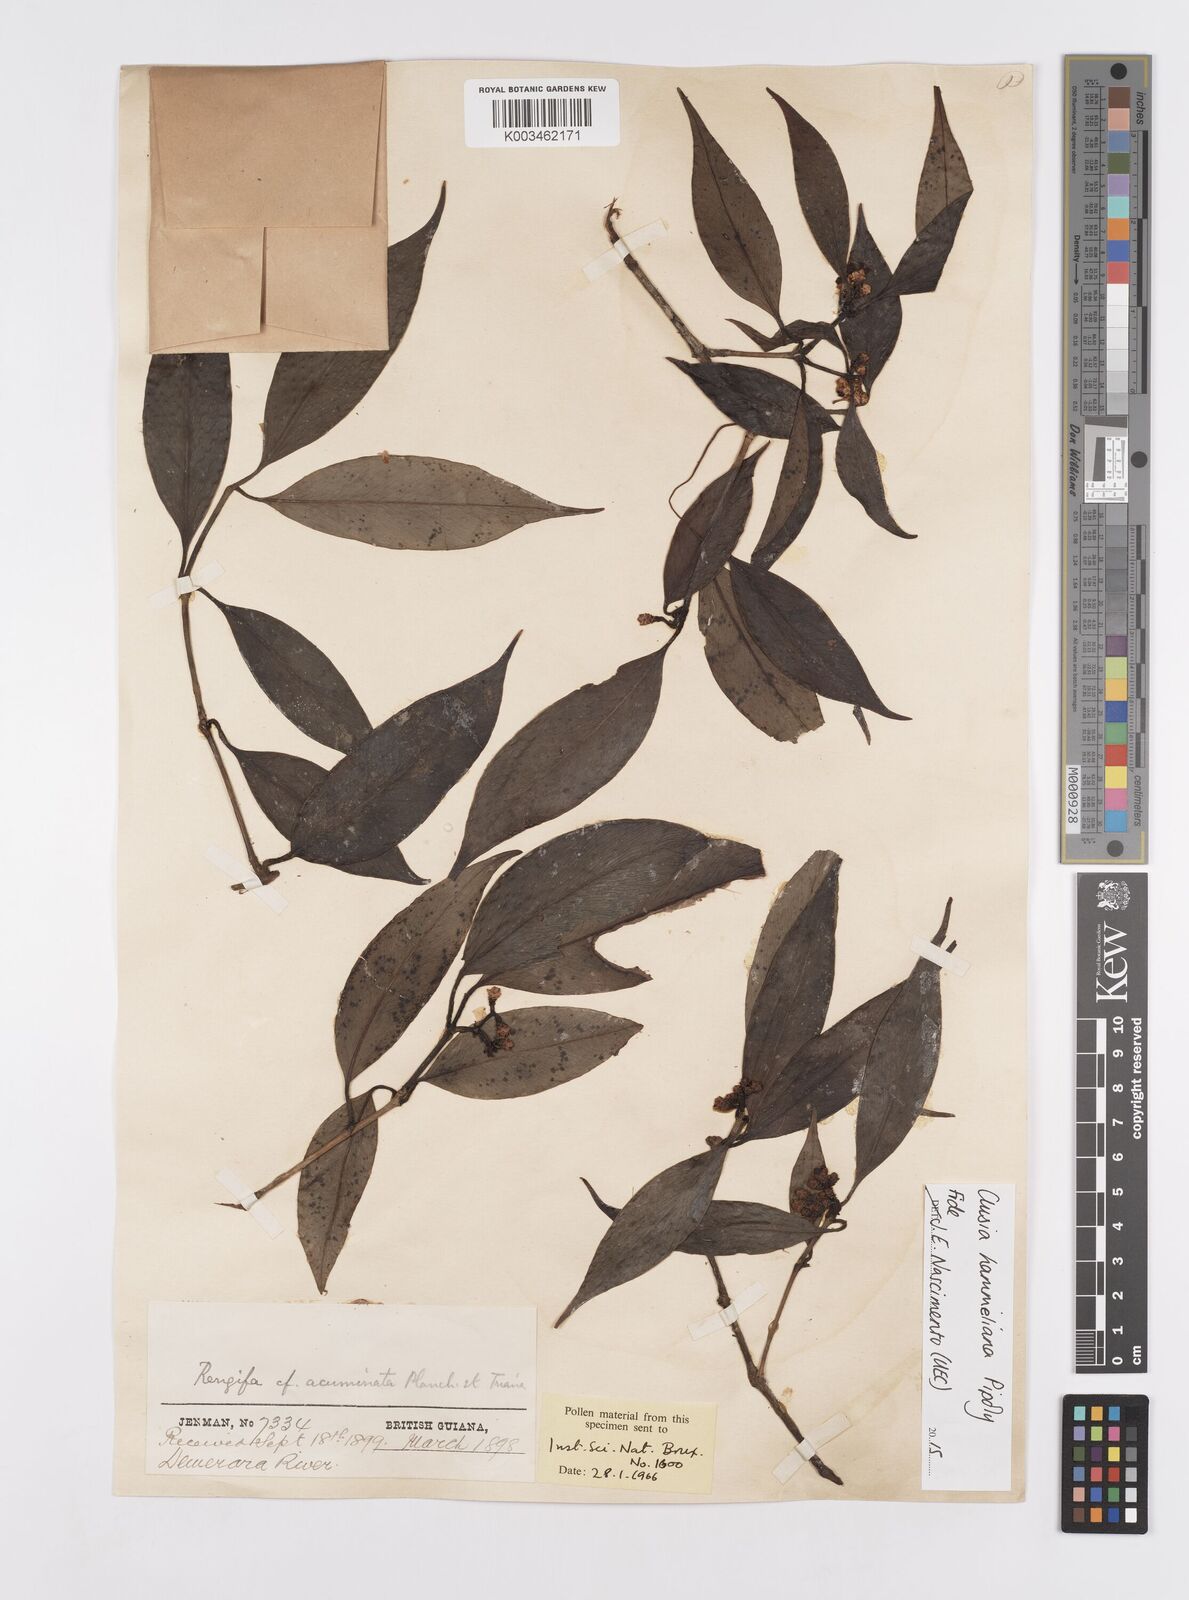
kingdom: Plantae
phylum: Tracheophyta
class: Magnoliopsida
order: Malpighiales
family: Clusiaceae
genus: Clusia
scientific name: Clusia hammeliana
